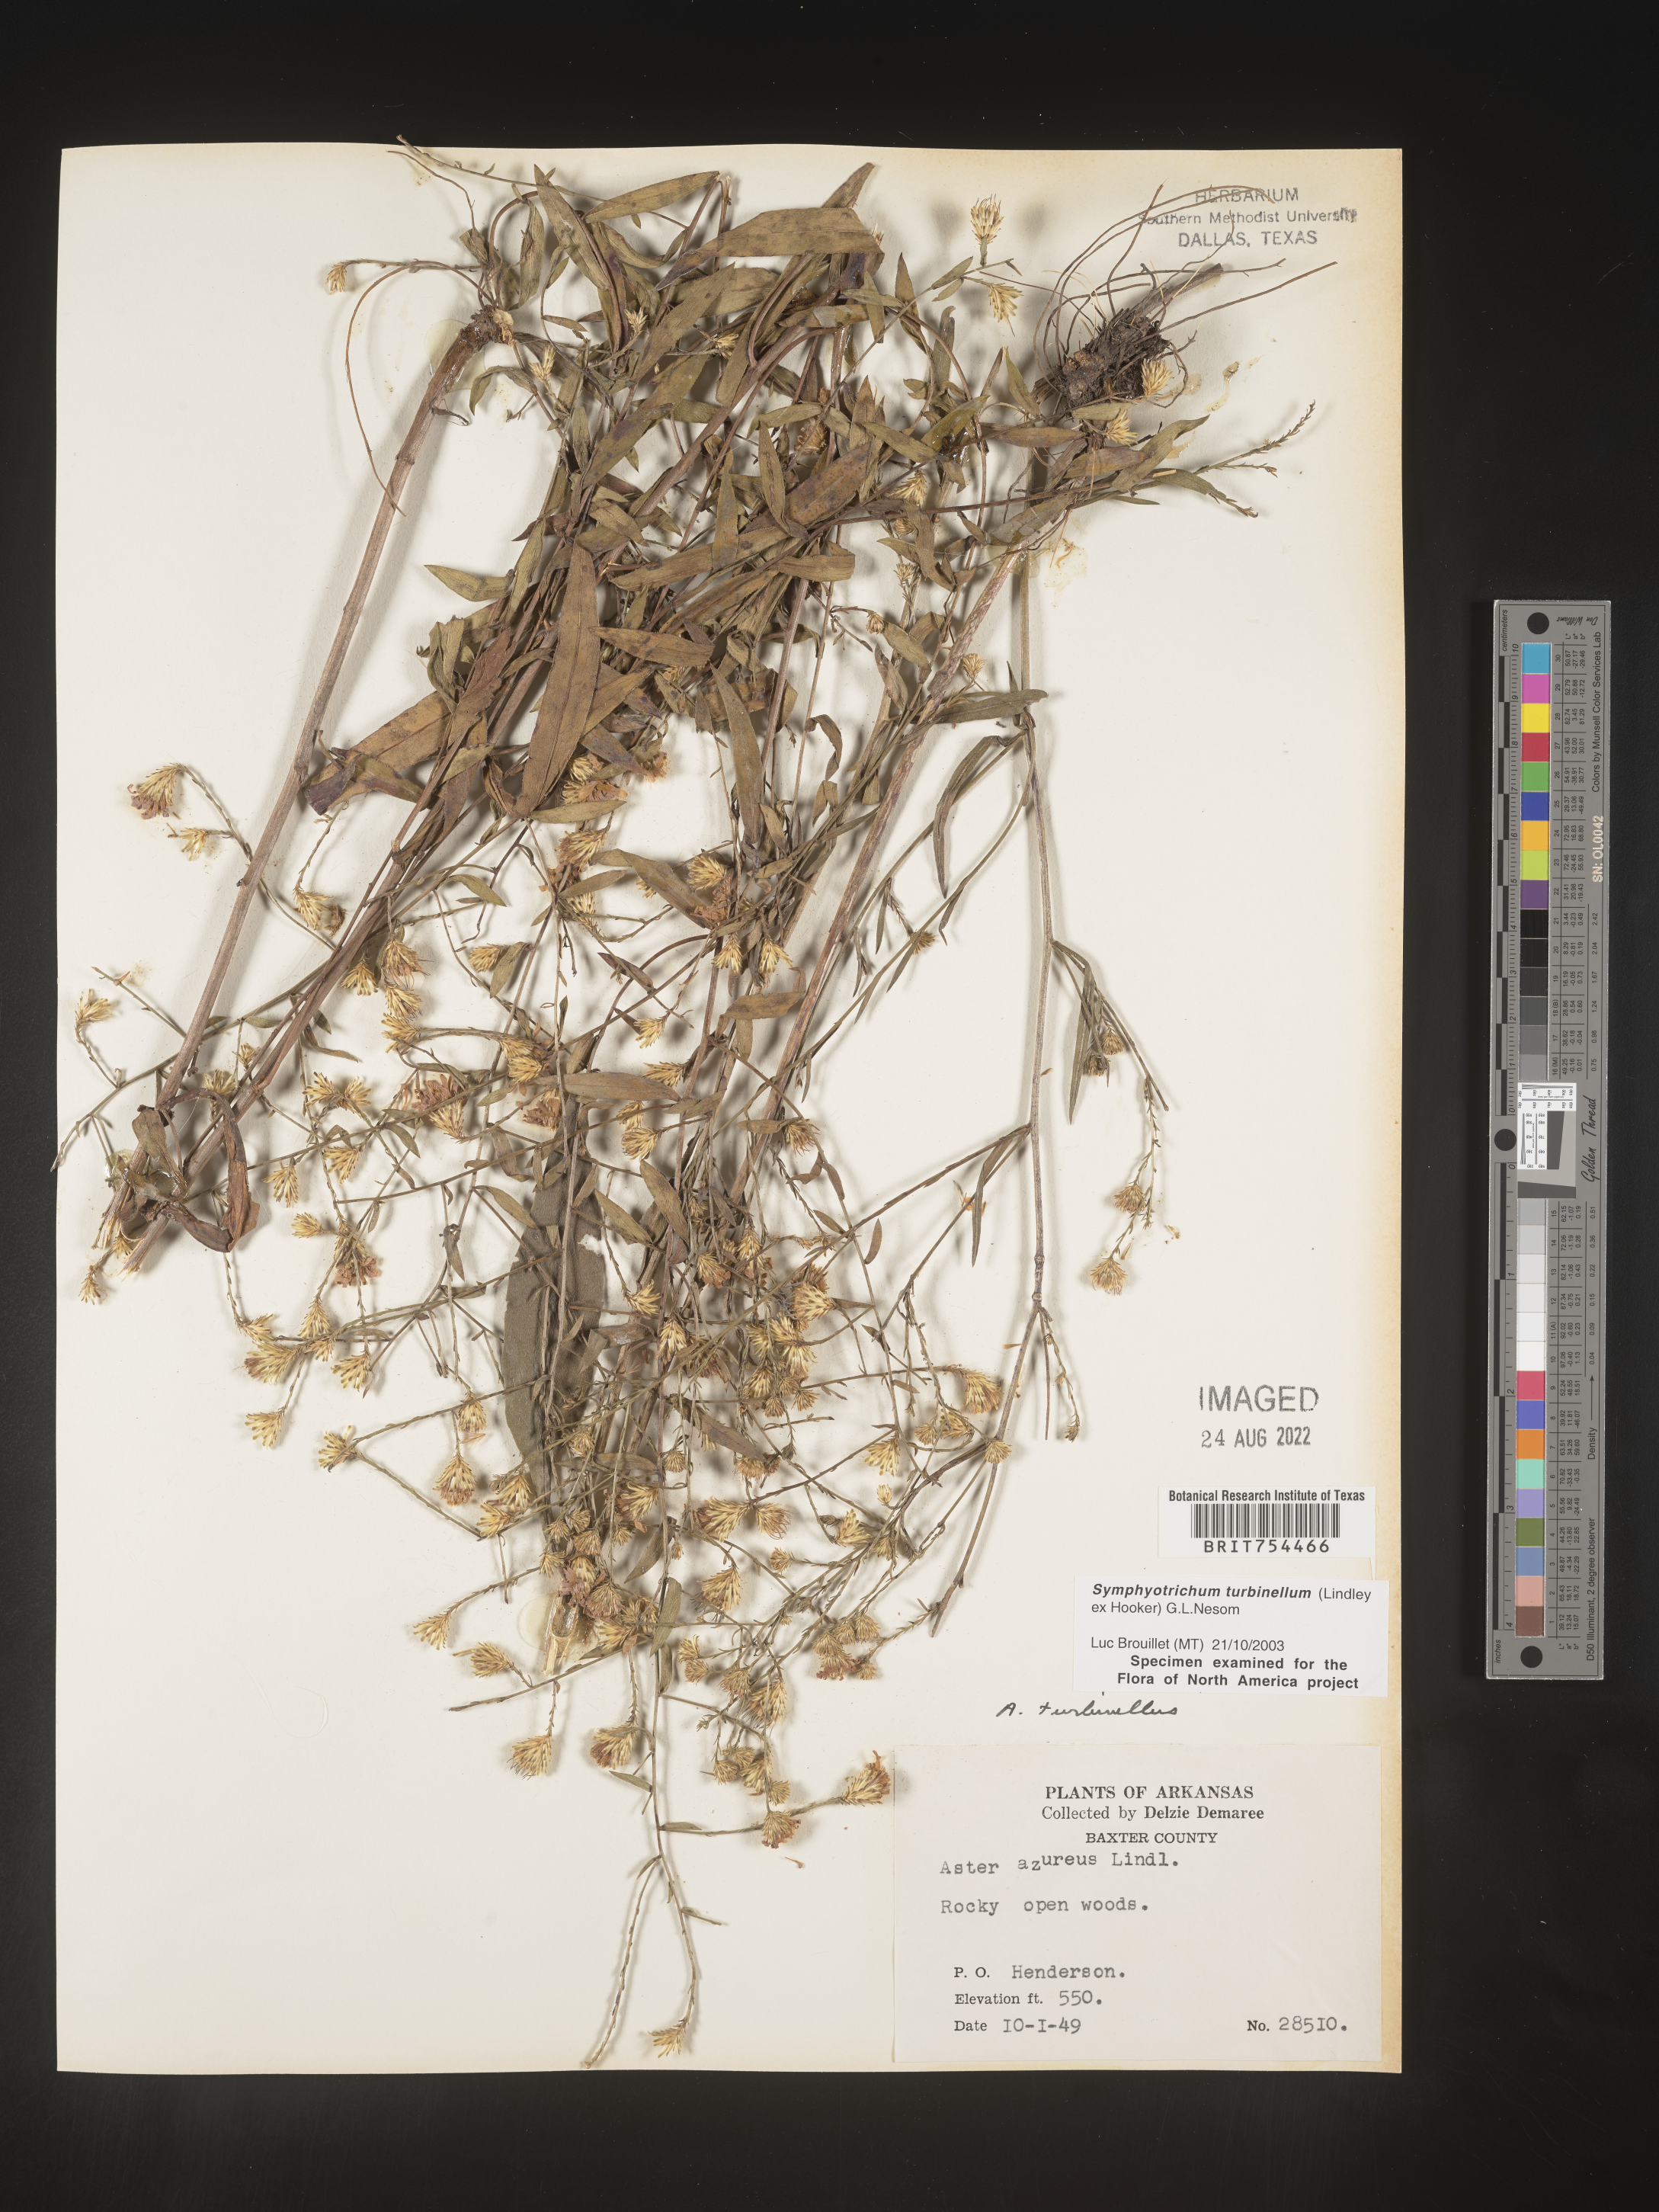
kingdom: Plantae
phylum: Tracheophyta
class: Magnoliopsida
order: Asterales
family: Asteraceae
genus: Symphyotrichum
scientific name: Symphyotrichum turbinellum
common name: Prairie aster
